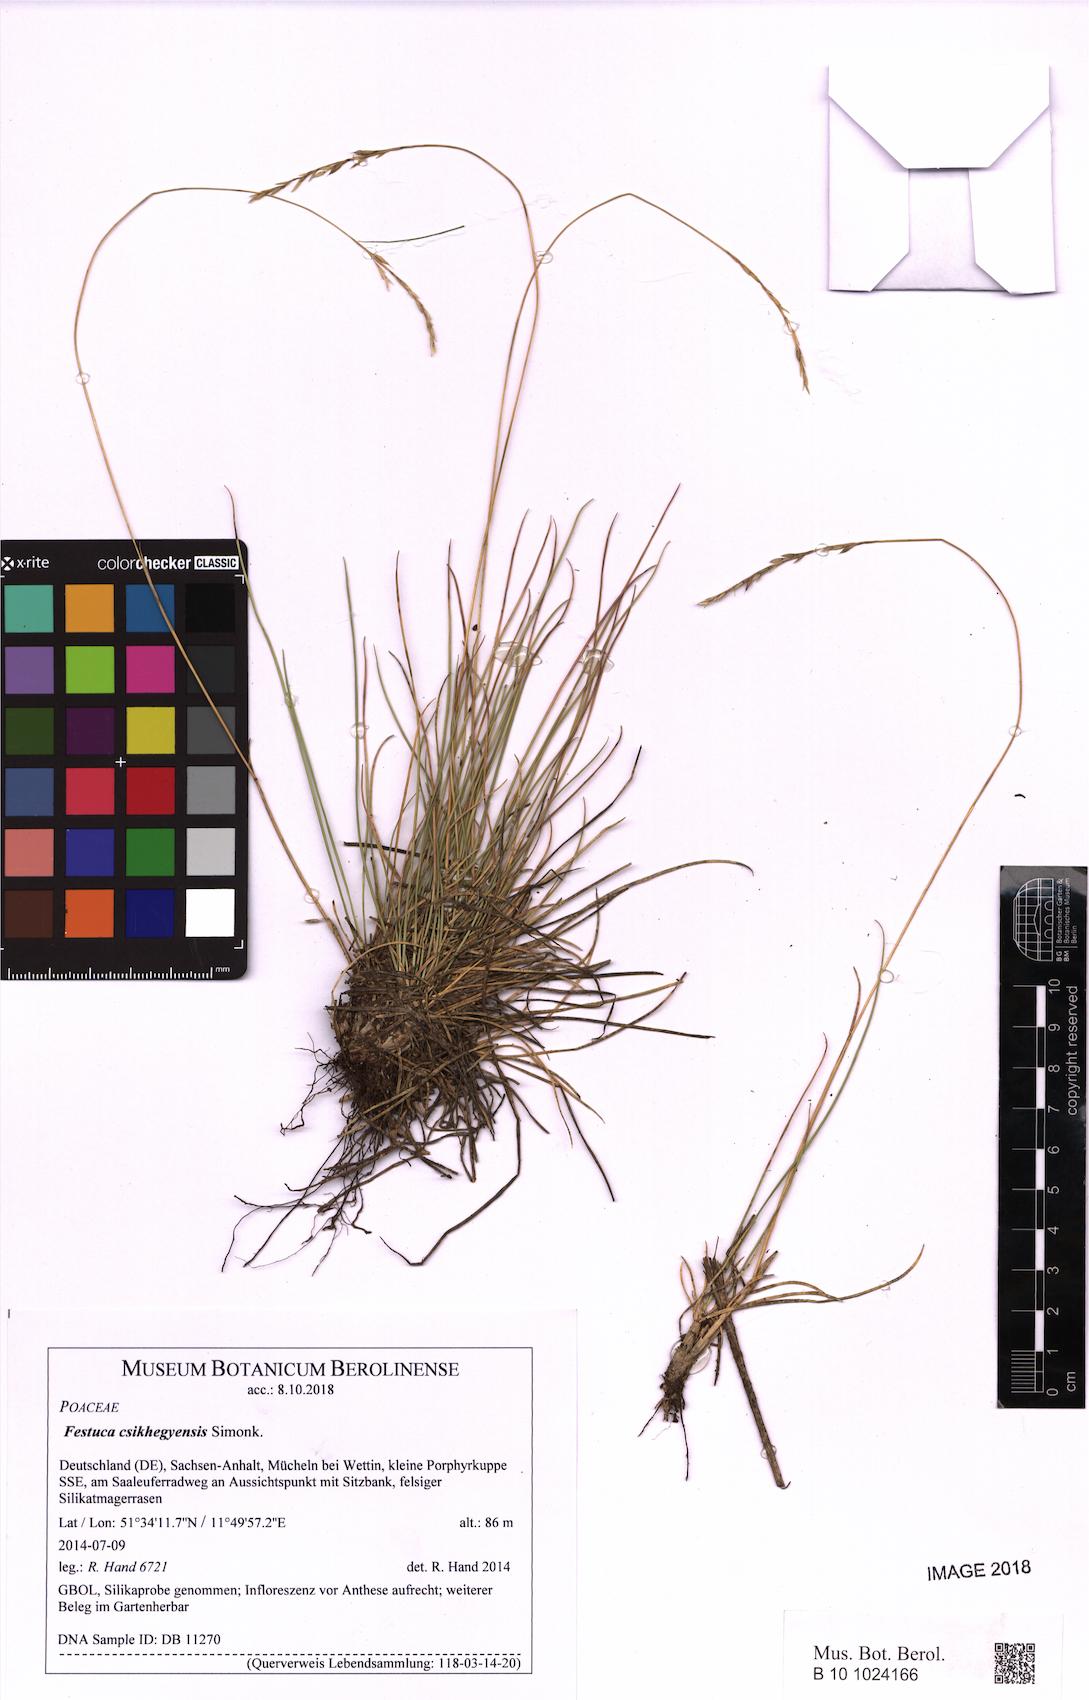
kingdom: Plantae
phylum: Tracheophyta
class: Liliopsida
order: Poales
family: Poaceae
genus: Festuca
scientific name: Festuca csikhegyensis
